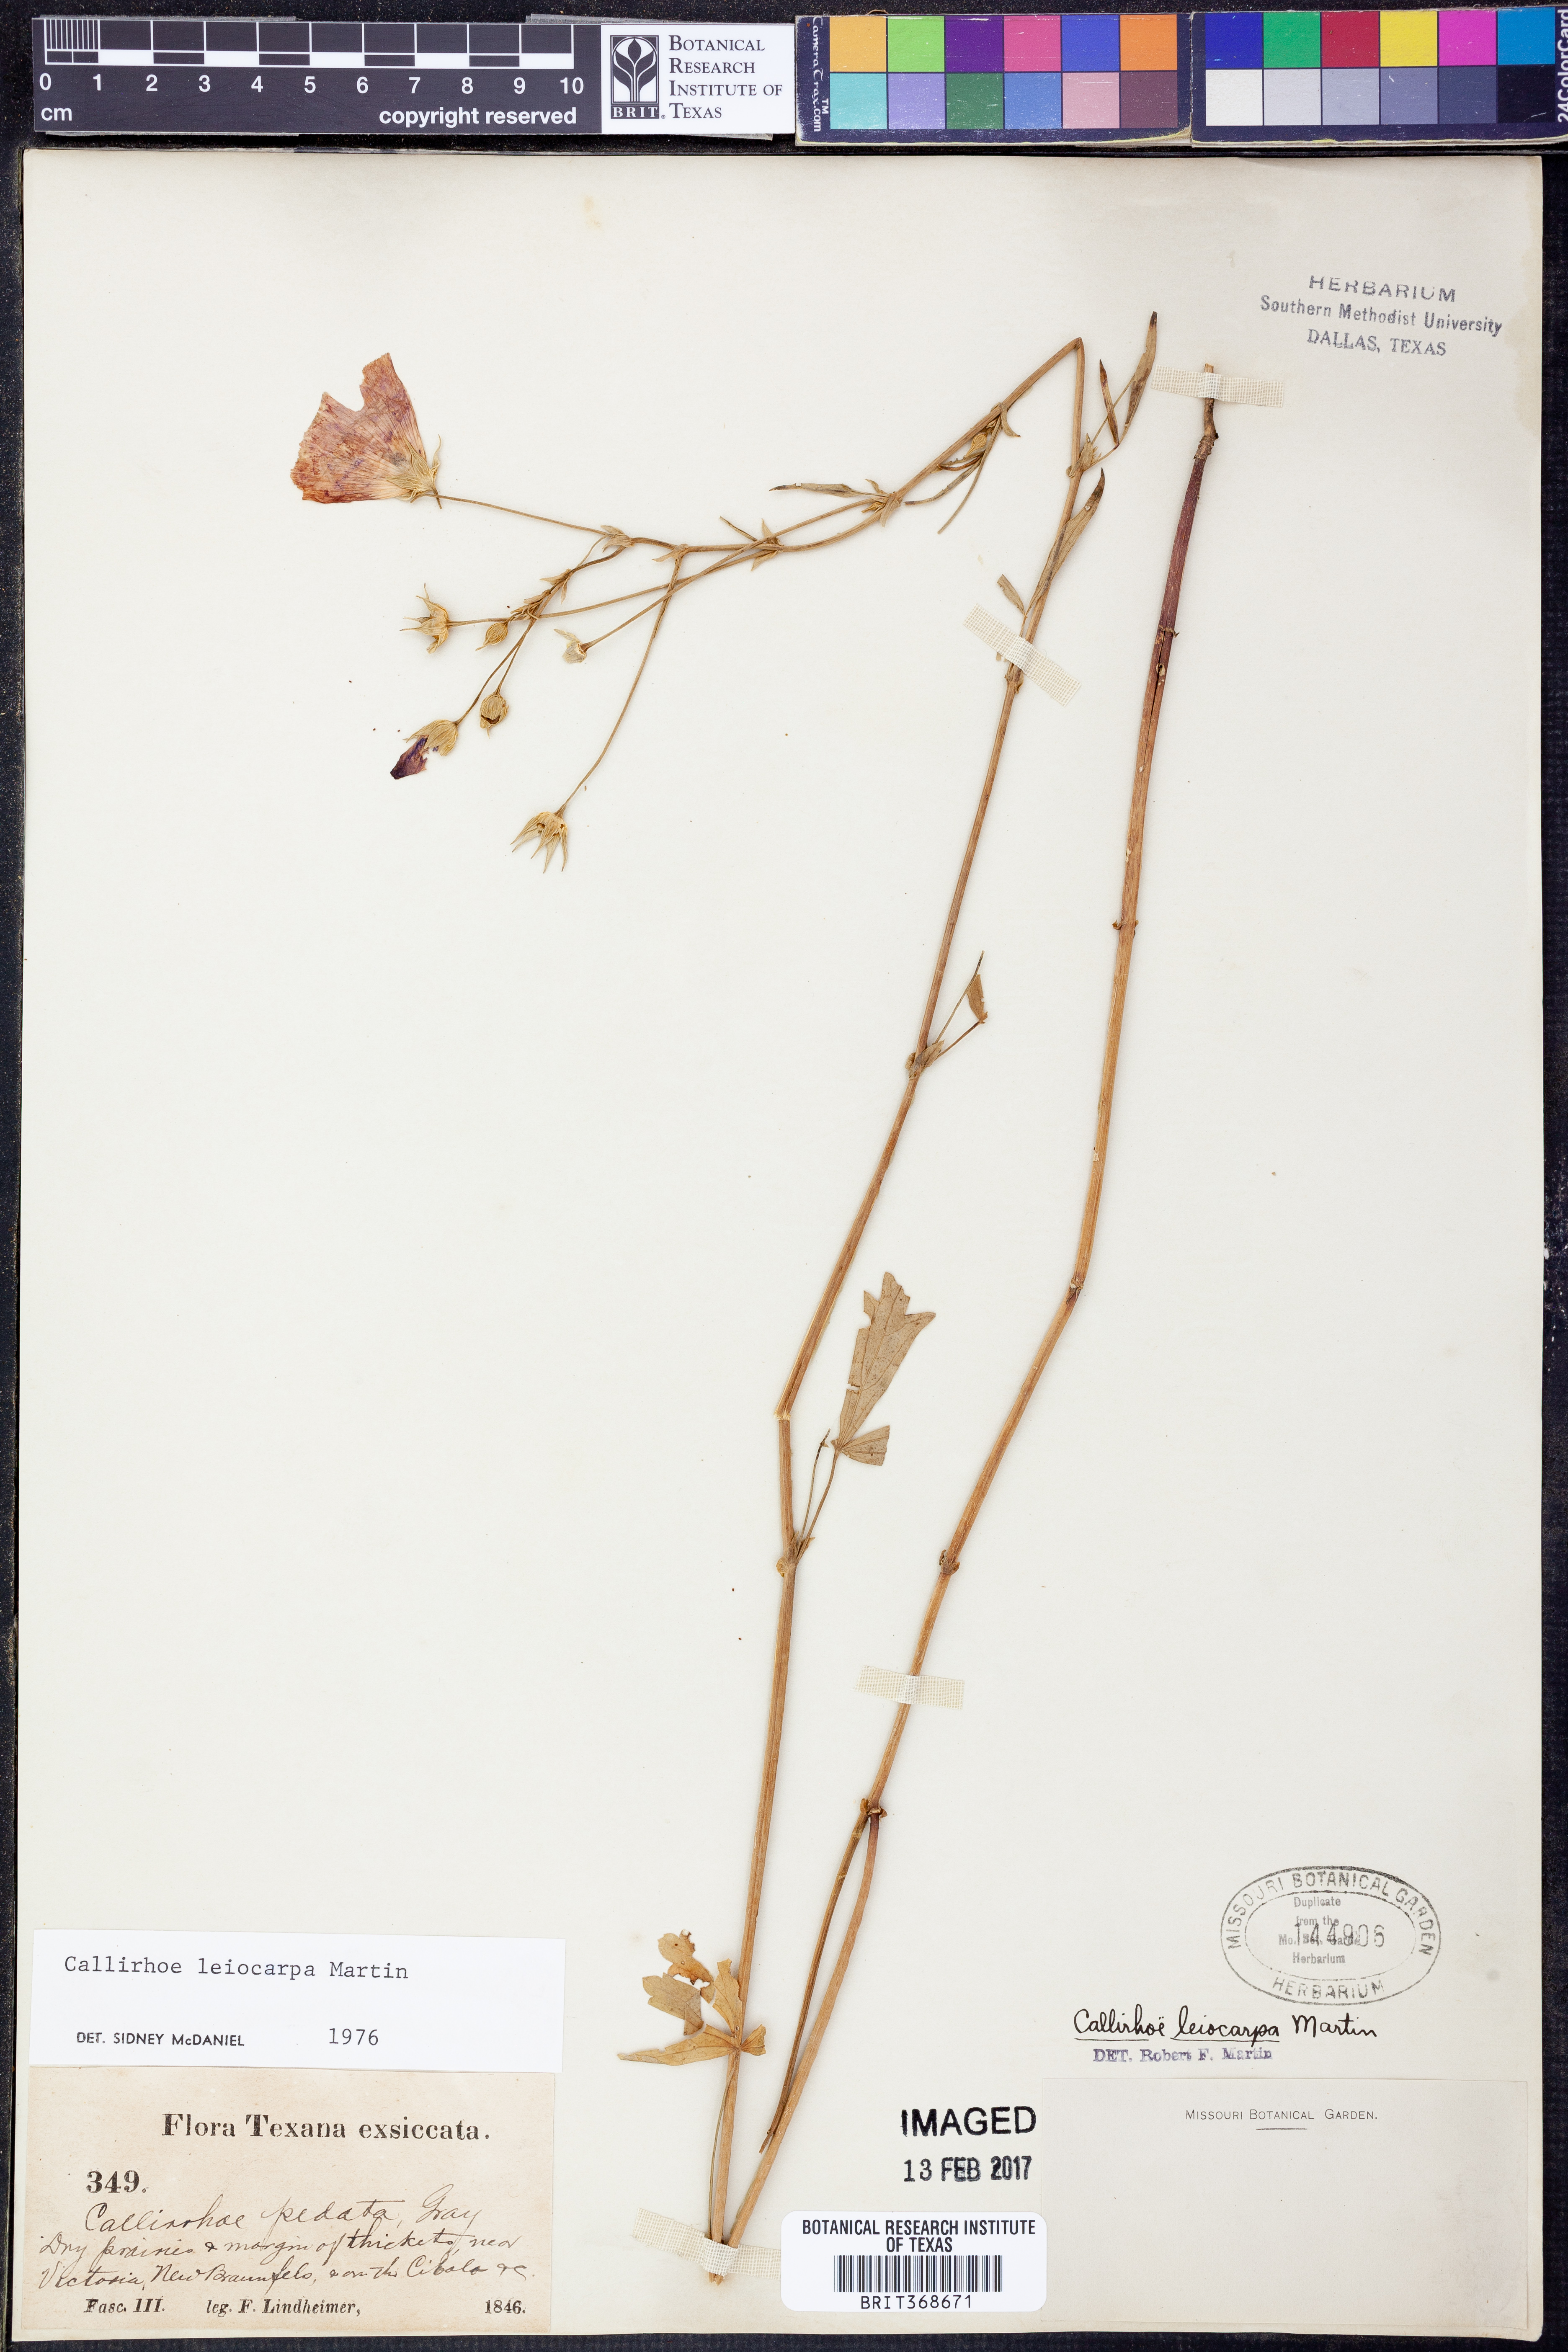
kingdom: Plantae
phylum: Tracheophyta
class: Magnoliopsida
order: Malvales
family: Malvaceae
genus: Callirhoe
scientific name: Callirhoe leiocarpa
